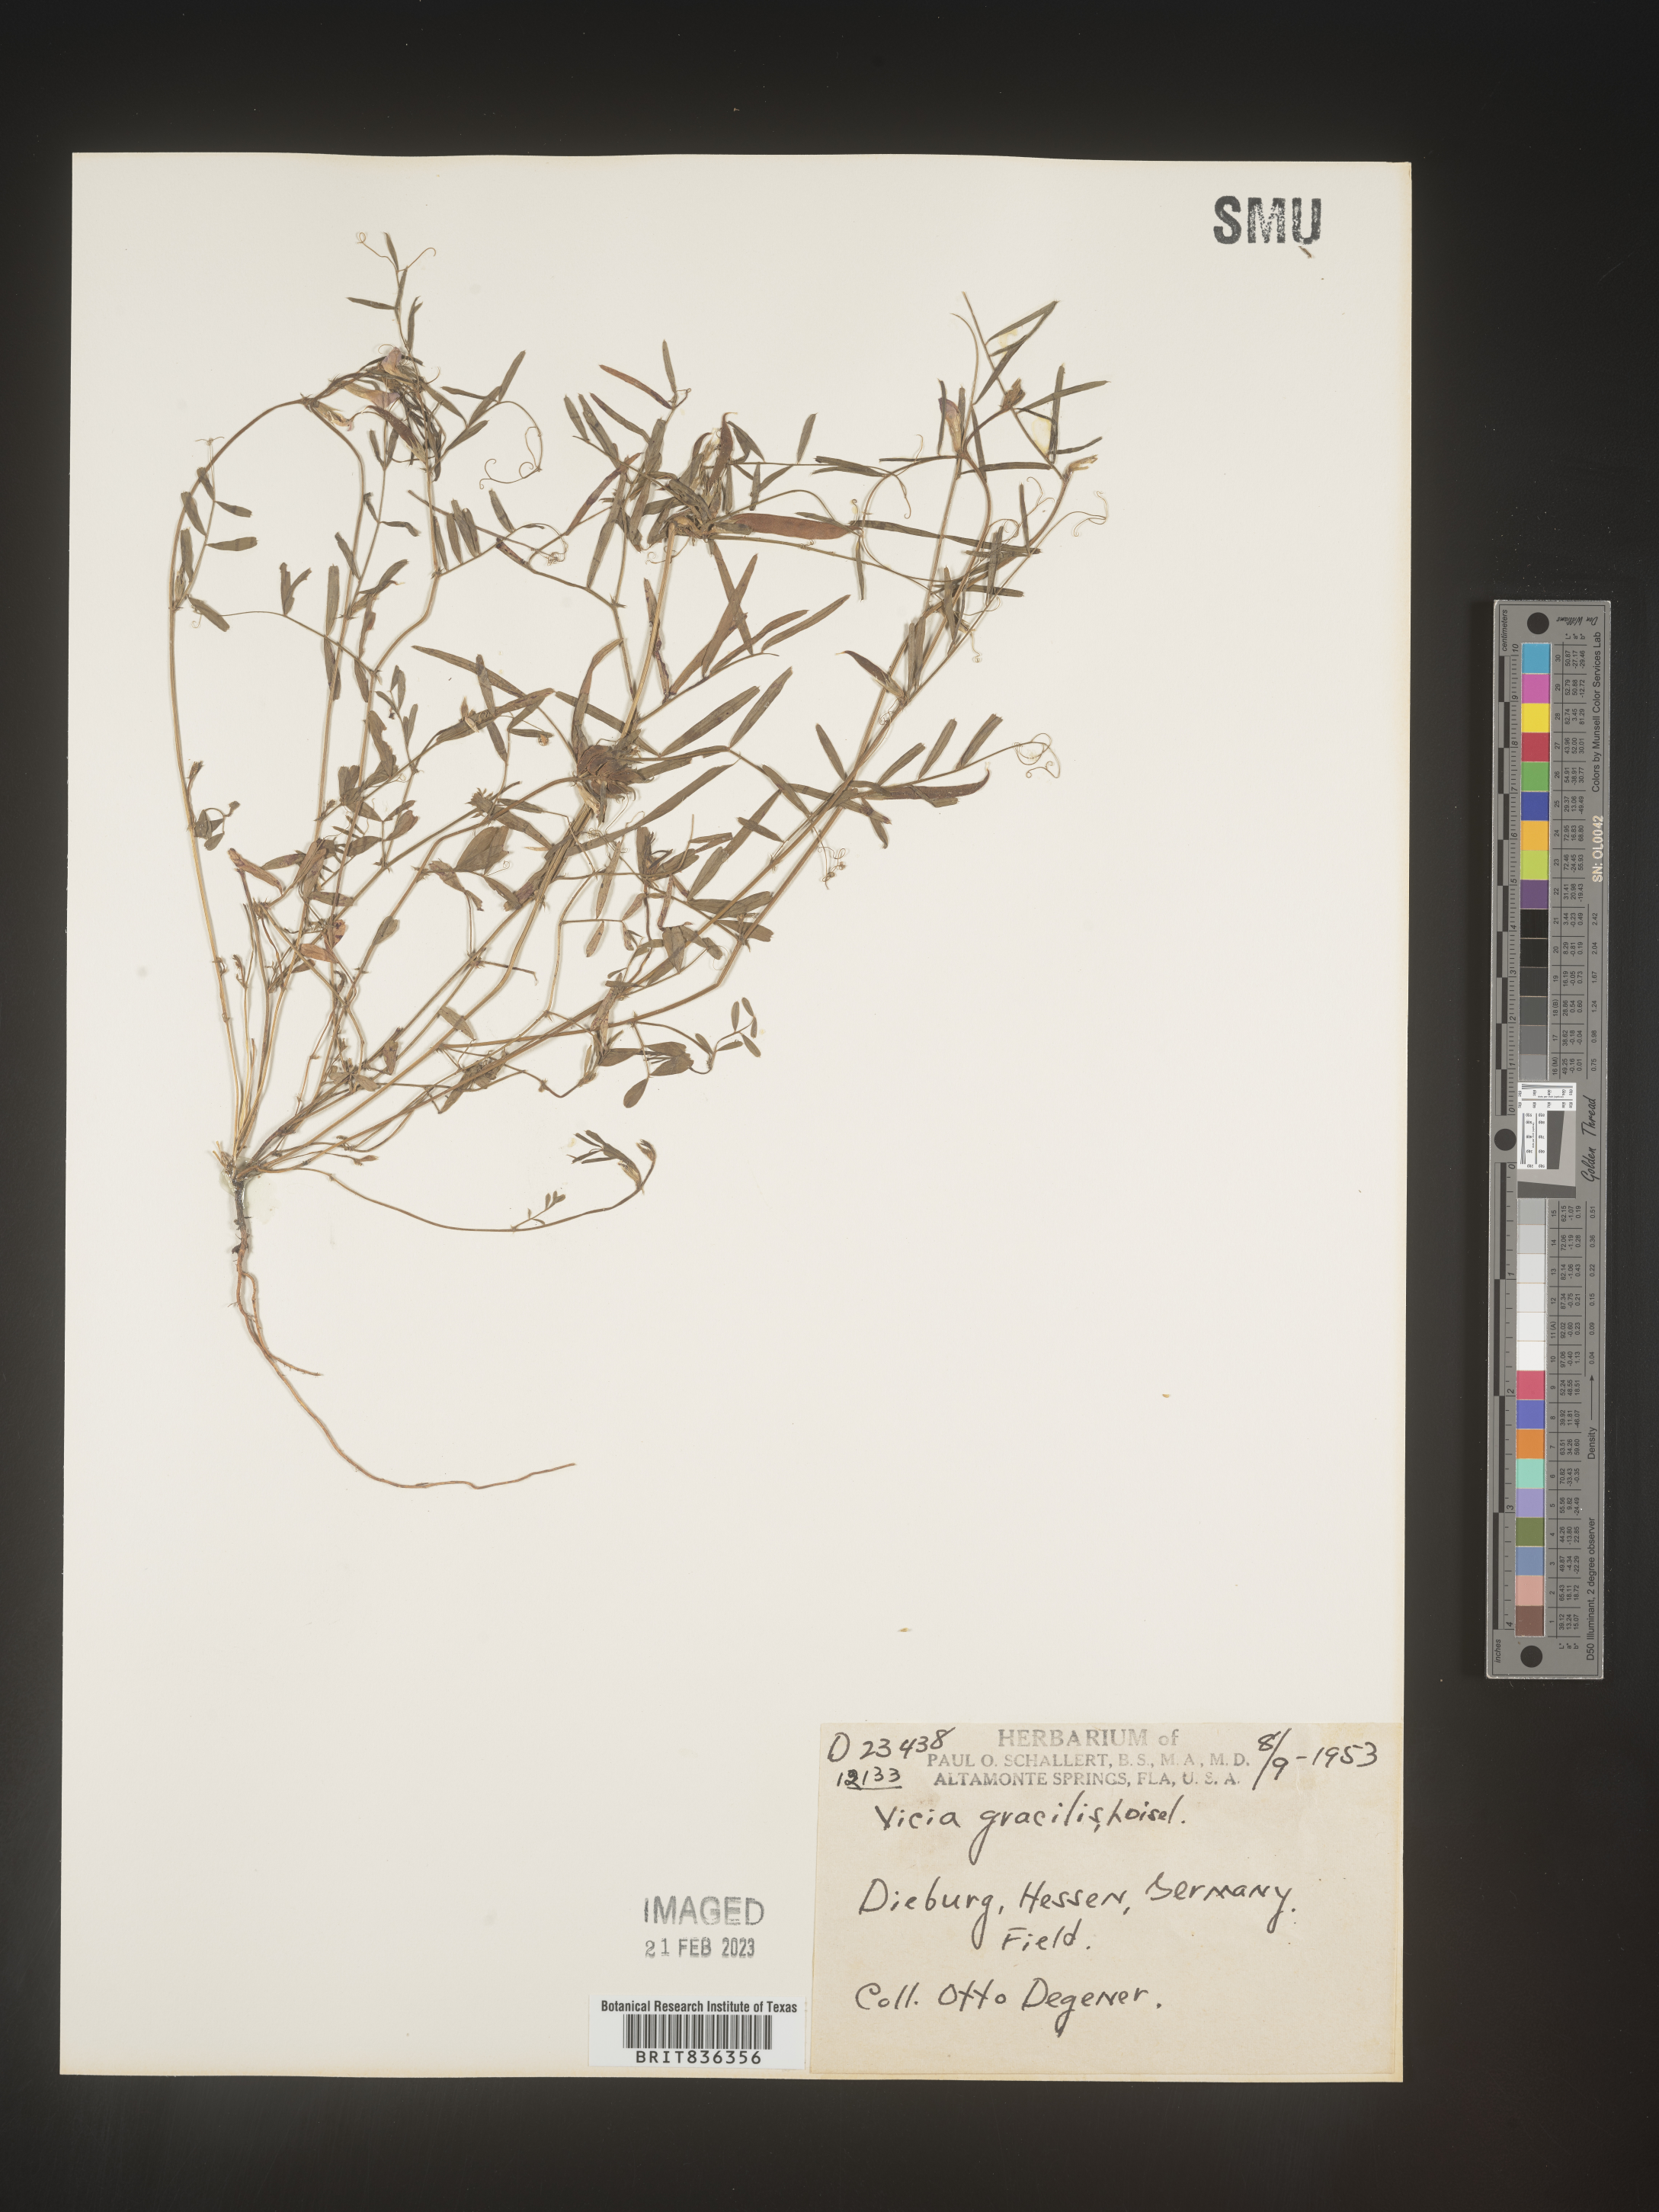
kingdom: Plantae
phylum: Tracheophyta
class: Magnoliopsida
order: Fabales
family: Fabaceae
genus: Vicia
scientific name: Vicia
